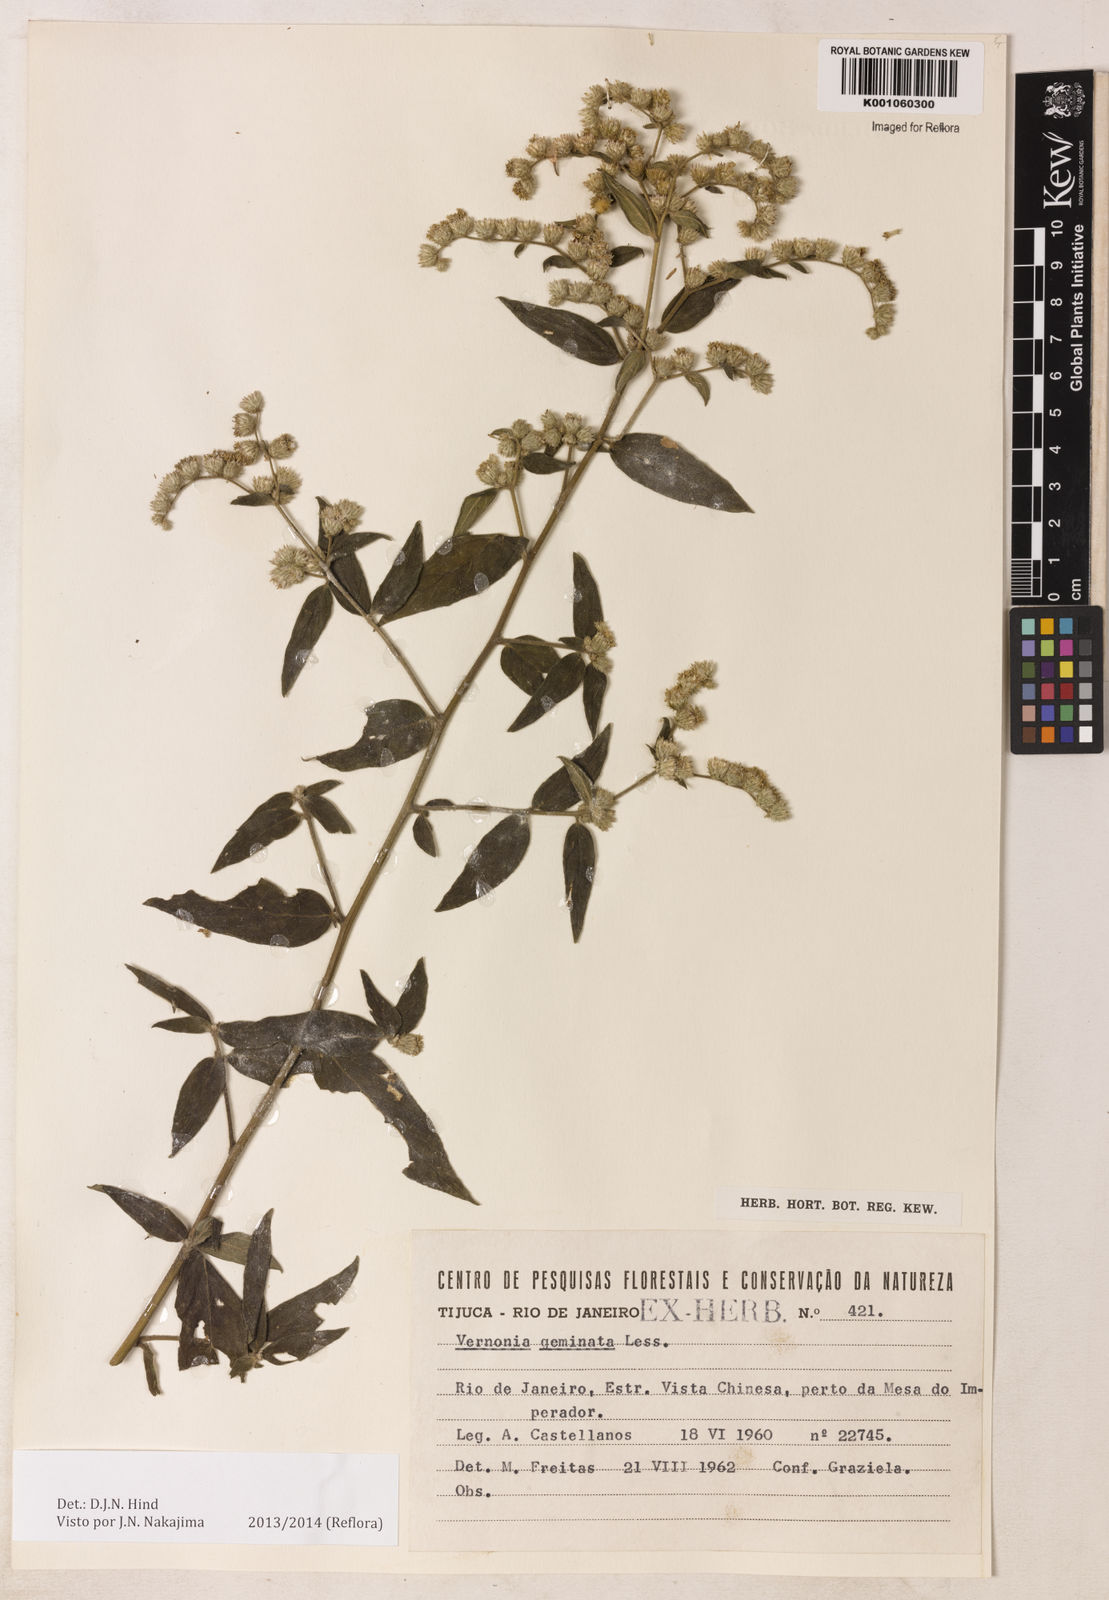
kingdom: Plantae
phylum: Tracheophyta
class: Magnoliopsida
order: Asterales
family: Asteraceae
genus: Lepidaploa
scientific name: Lepidaploa canescens
